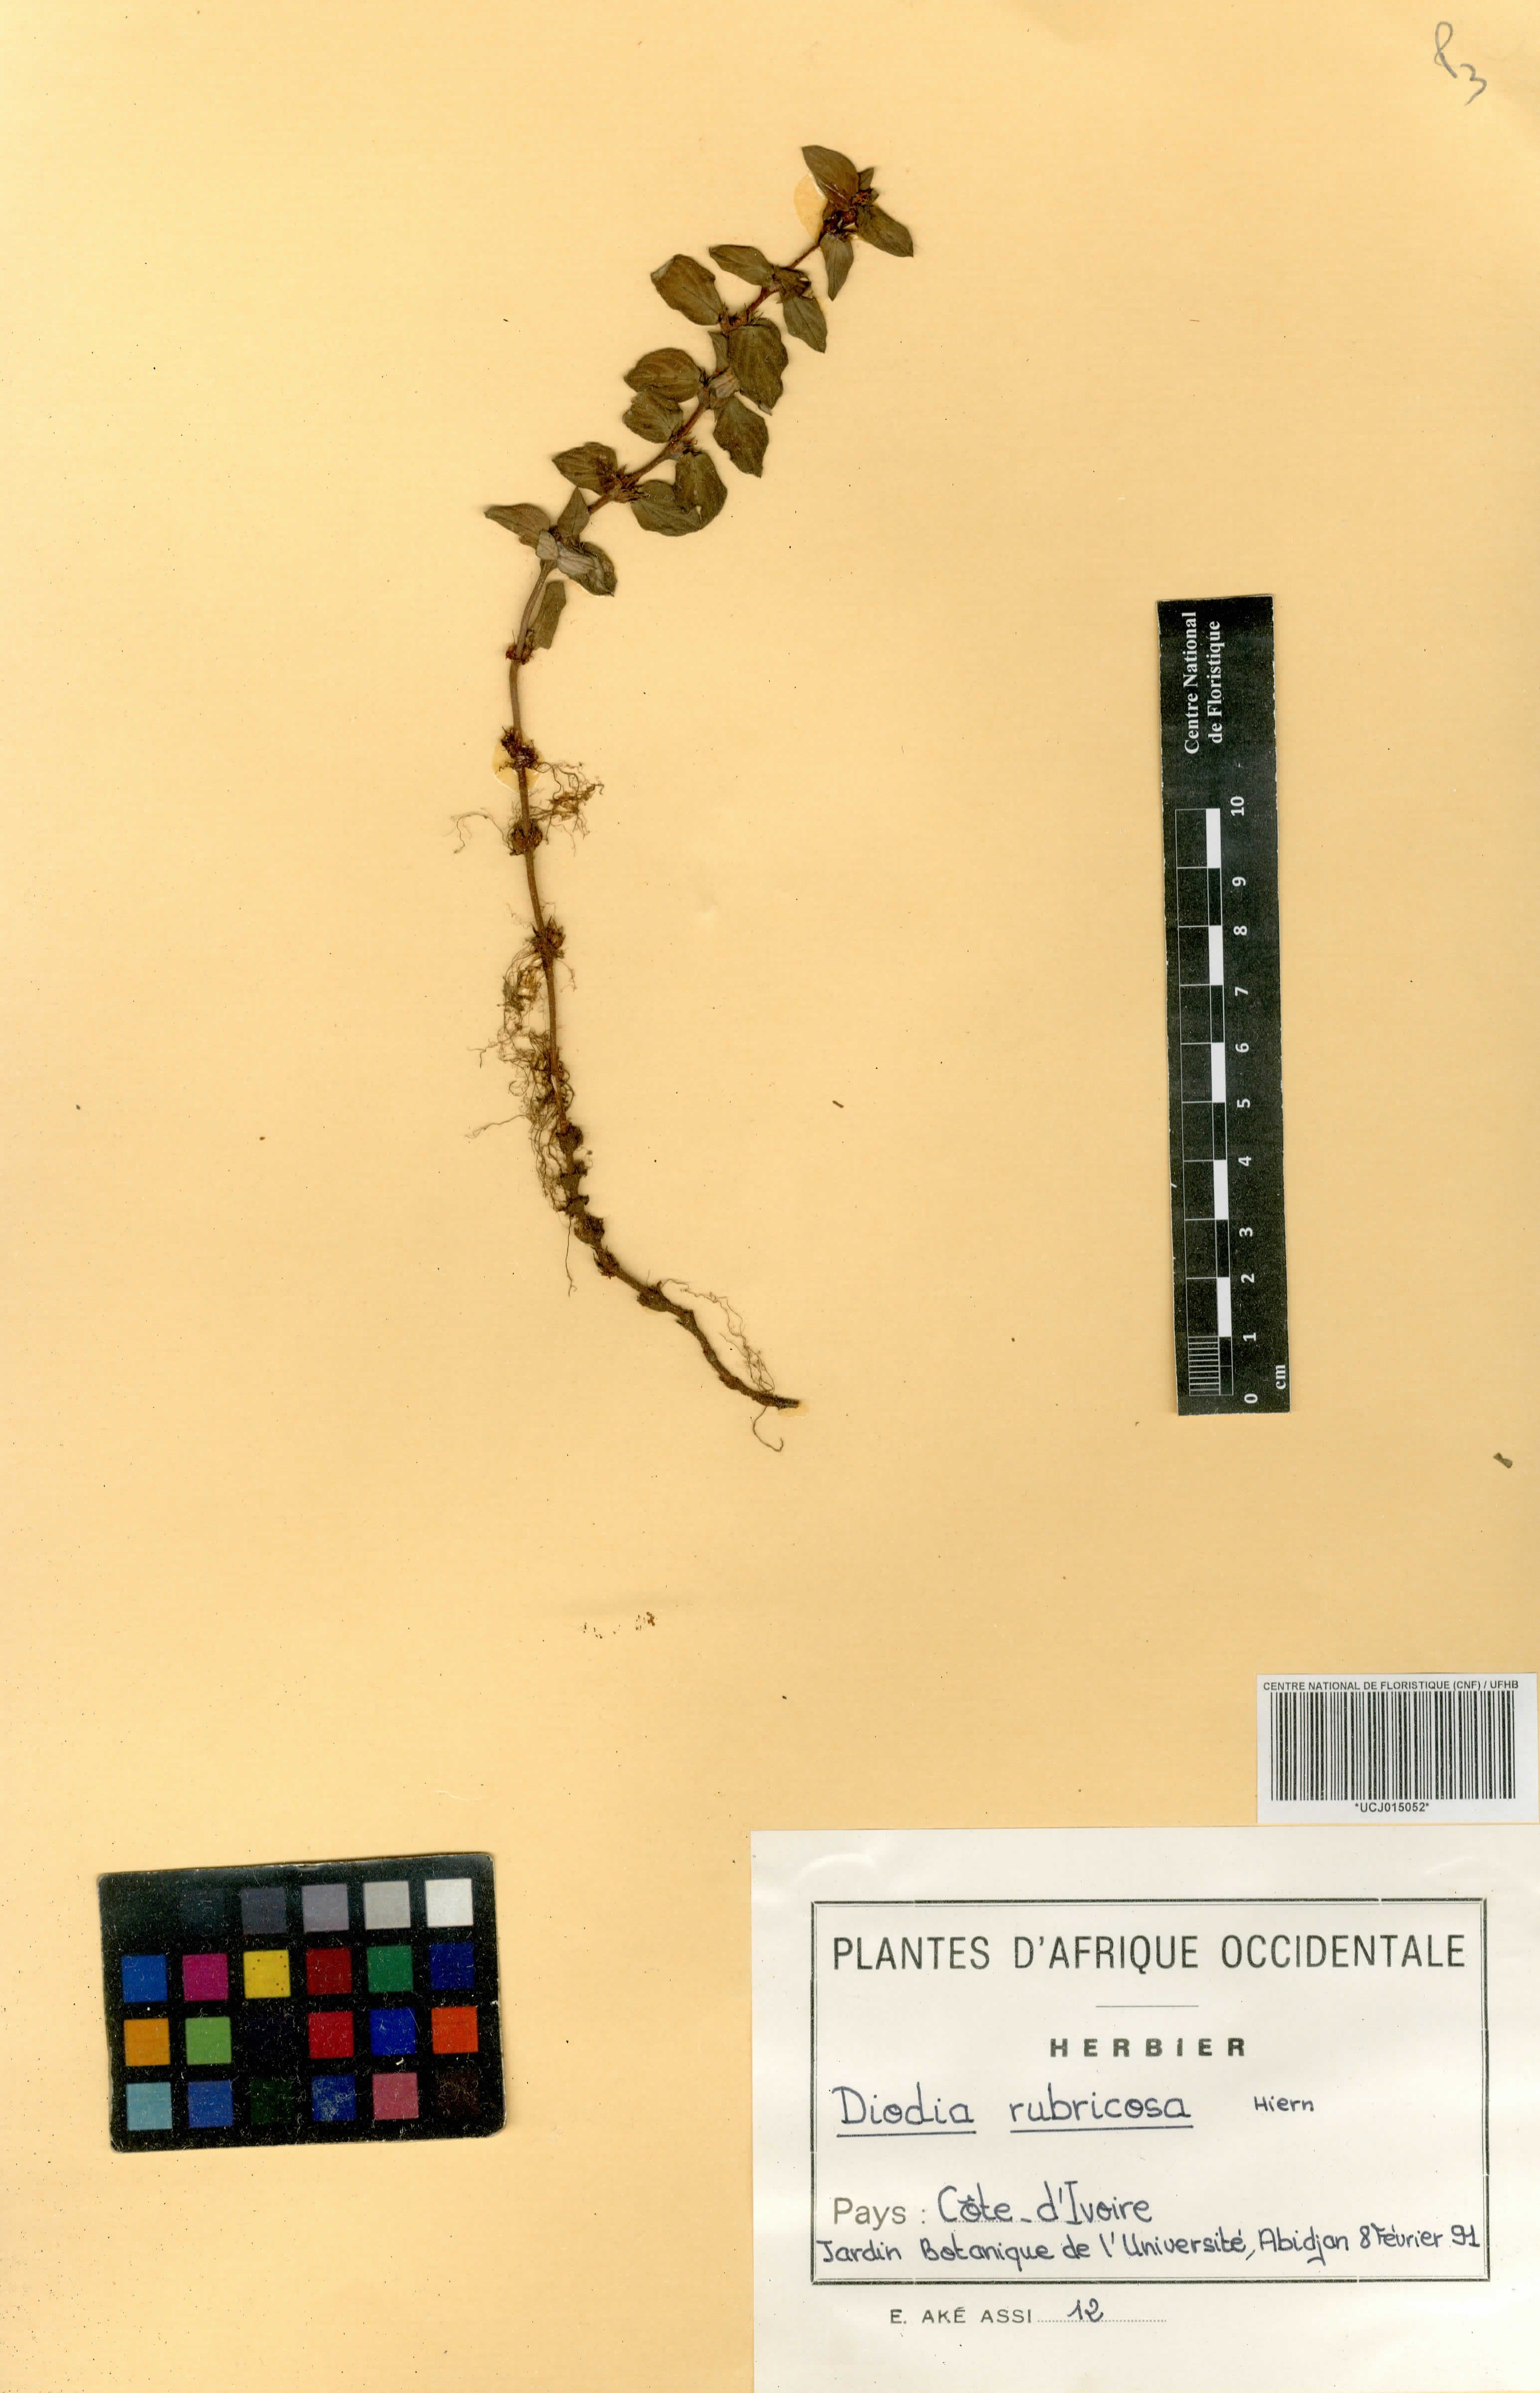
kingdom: Plantae
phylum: Tracheophyta
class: Magnoliopsida
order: Gentianales
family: Rubiaceae
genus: Diodia
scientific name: Diodia rubricosa
